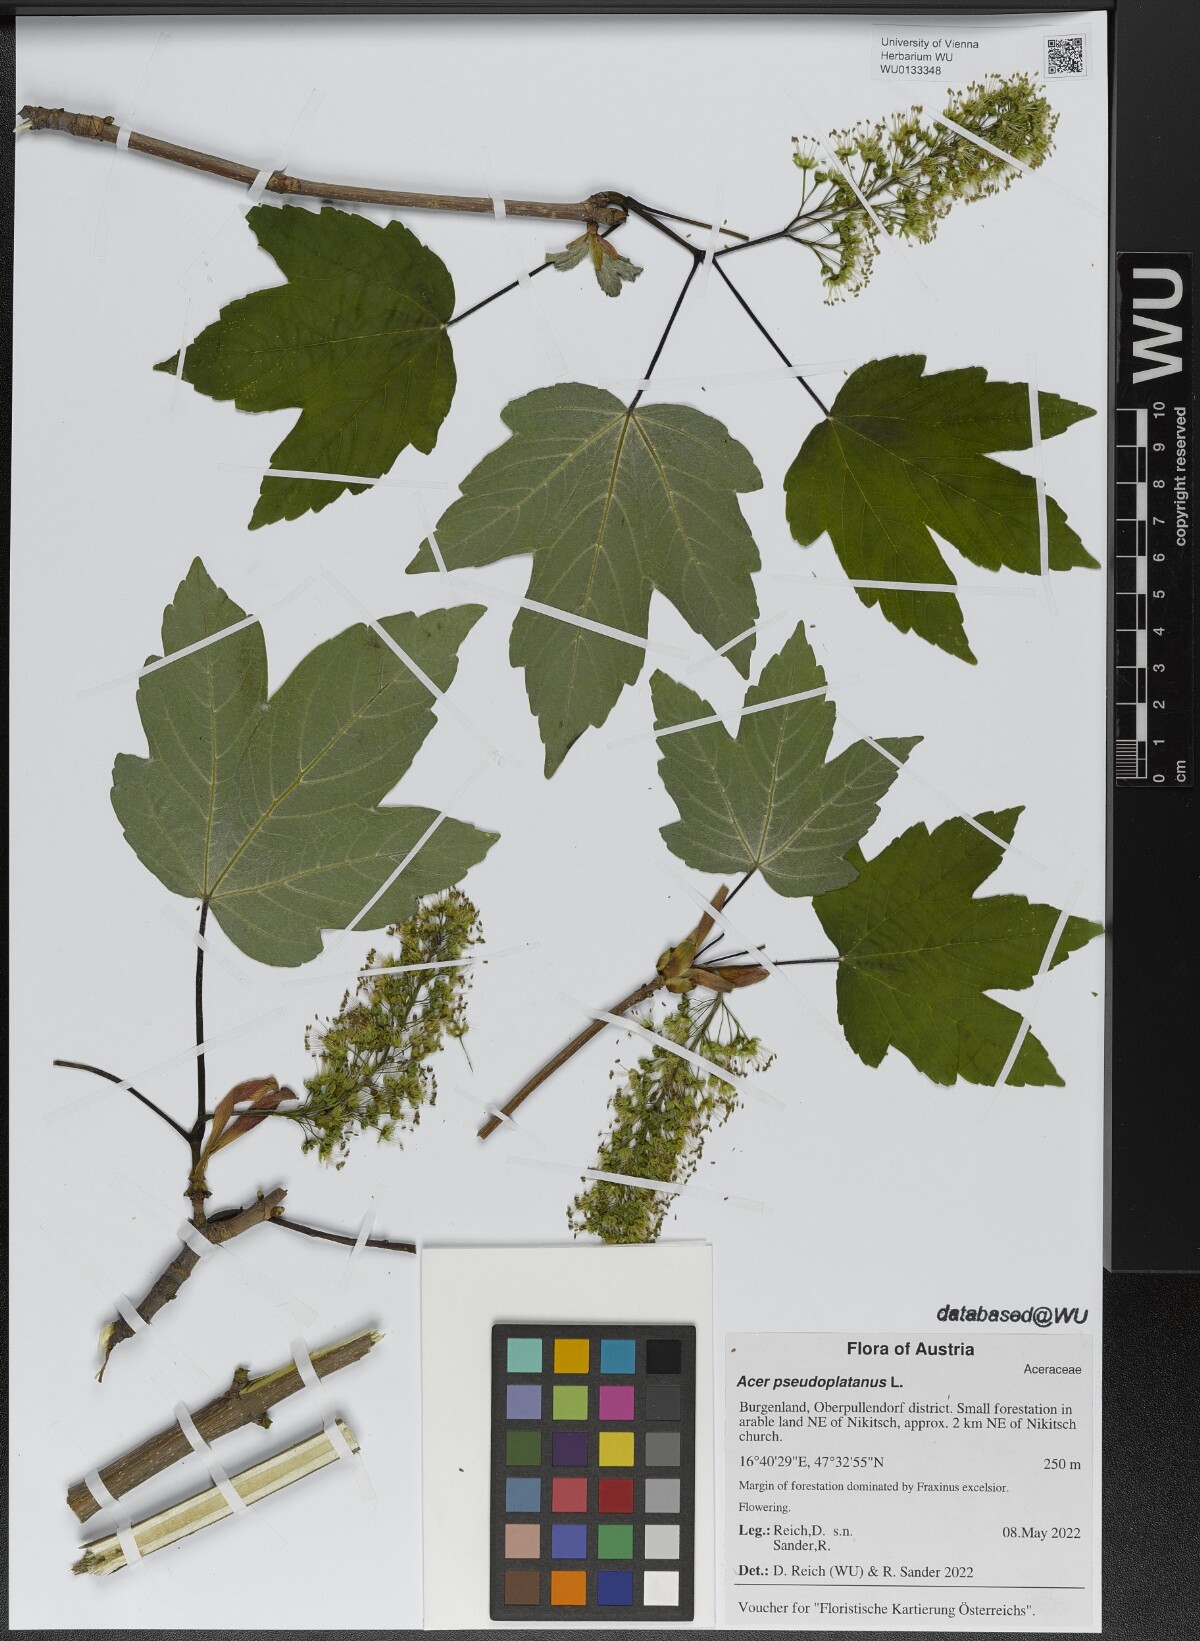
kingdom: Plantae
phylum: Tracheophyta
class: Magnoliopsida
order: Sapindales
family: Sapindaceae
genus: Acer
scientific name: Acer pseudoplatanus
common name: Sycamore
